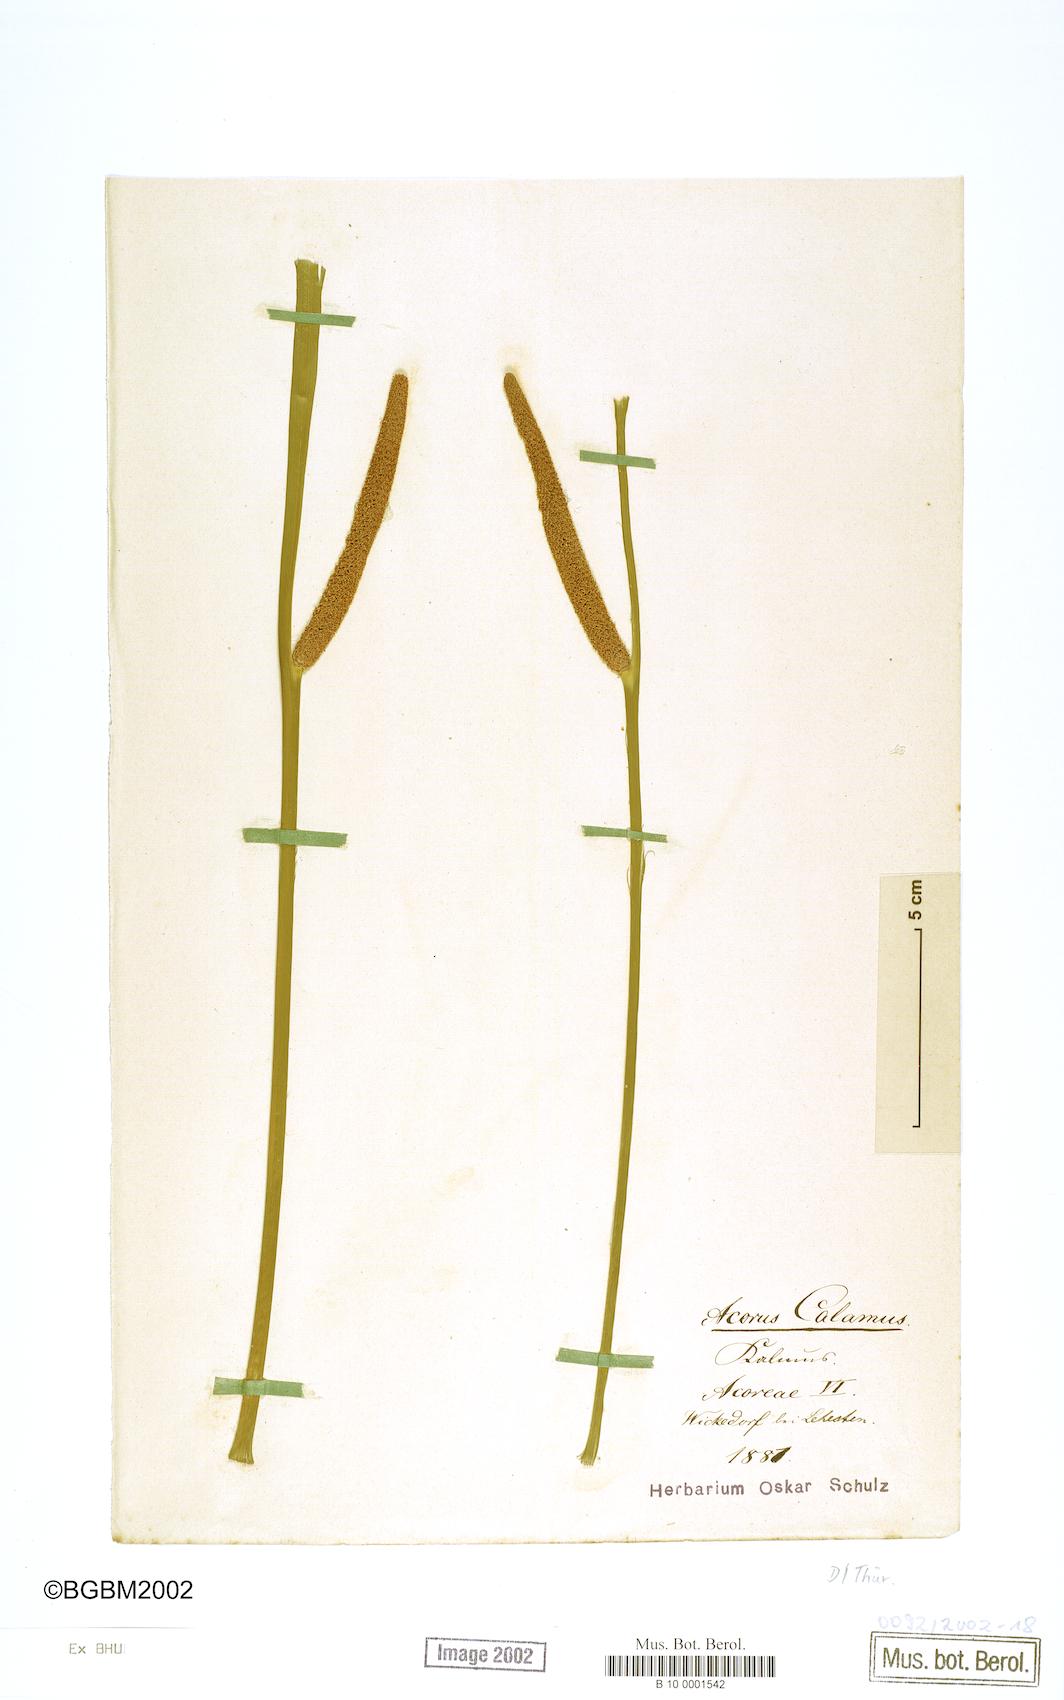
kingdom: Plantae
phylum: Tracheophyta
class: Liliopsida
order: Acorales
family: Acoraceae
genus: Acorus
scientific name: Acorus calamus
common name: Sweet-flag
